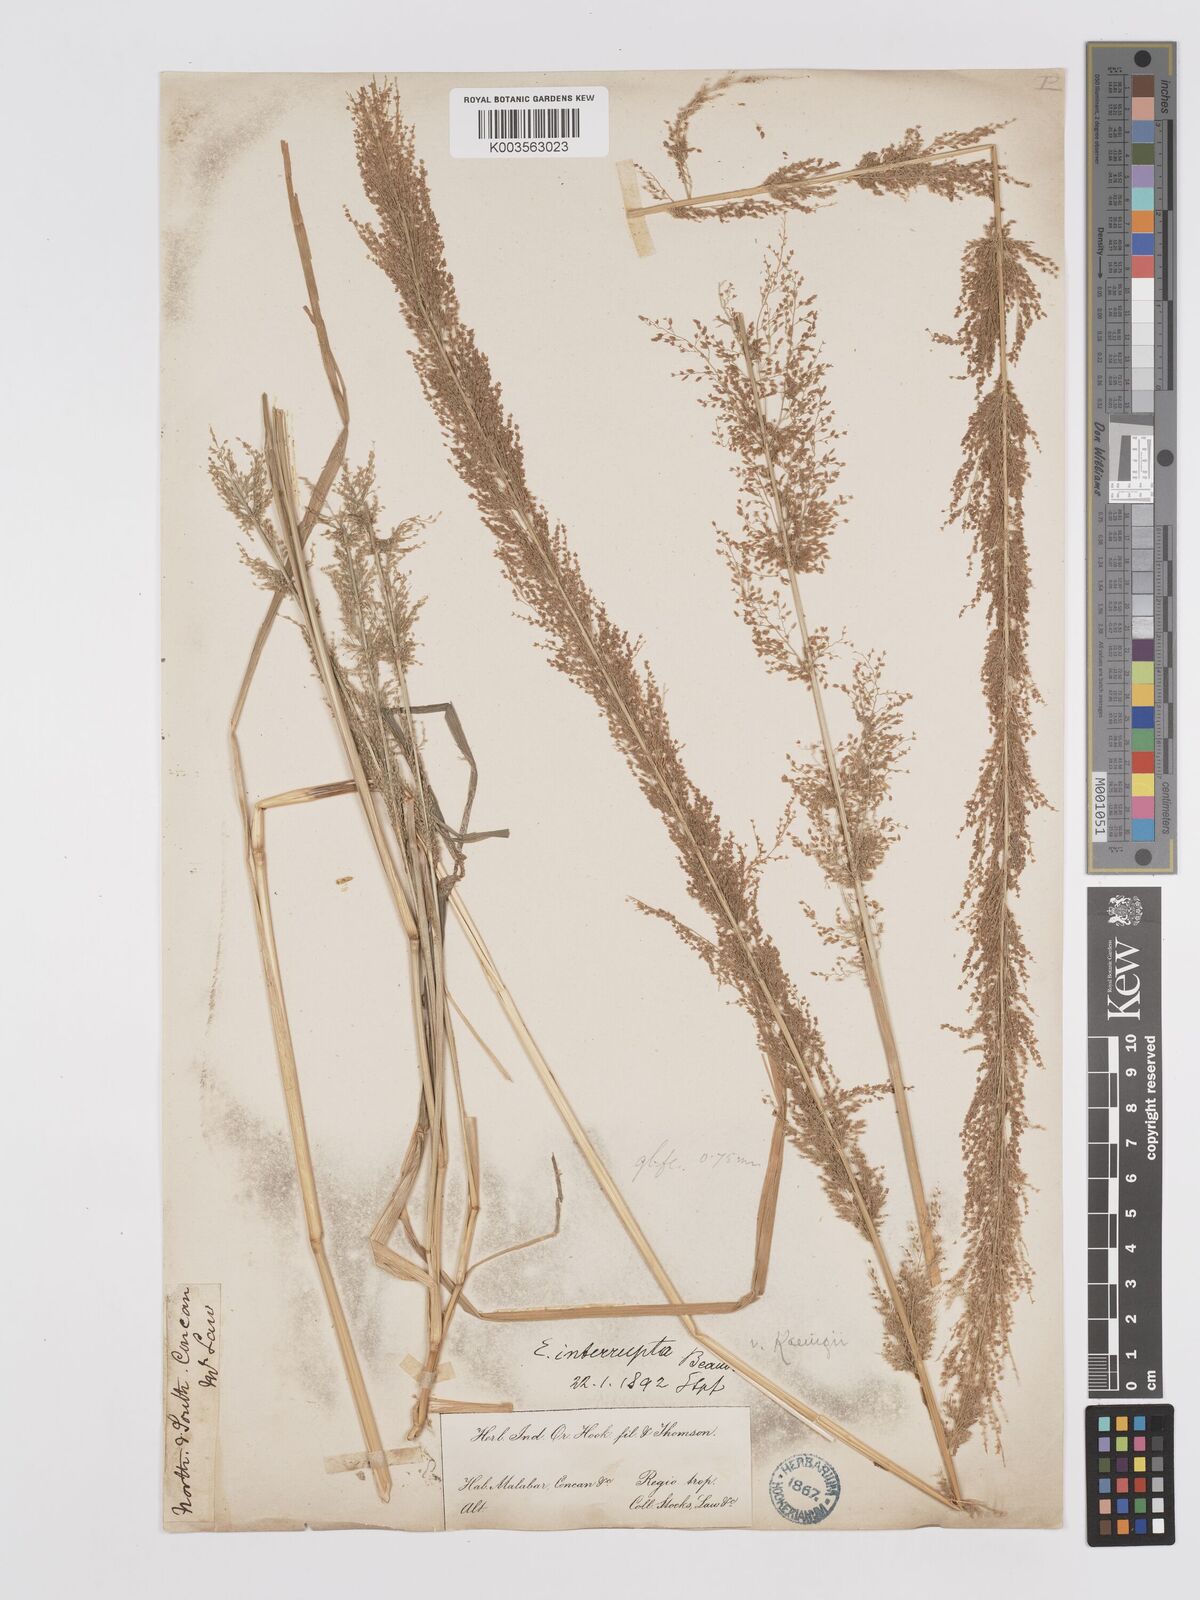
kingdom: Plantae
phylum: Tracheophyta
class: Liliopsida
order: Poales
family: Poaceae
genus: Eragrostis
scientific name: Eragrostis japonica
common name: Pond lovegrass
